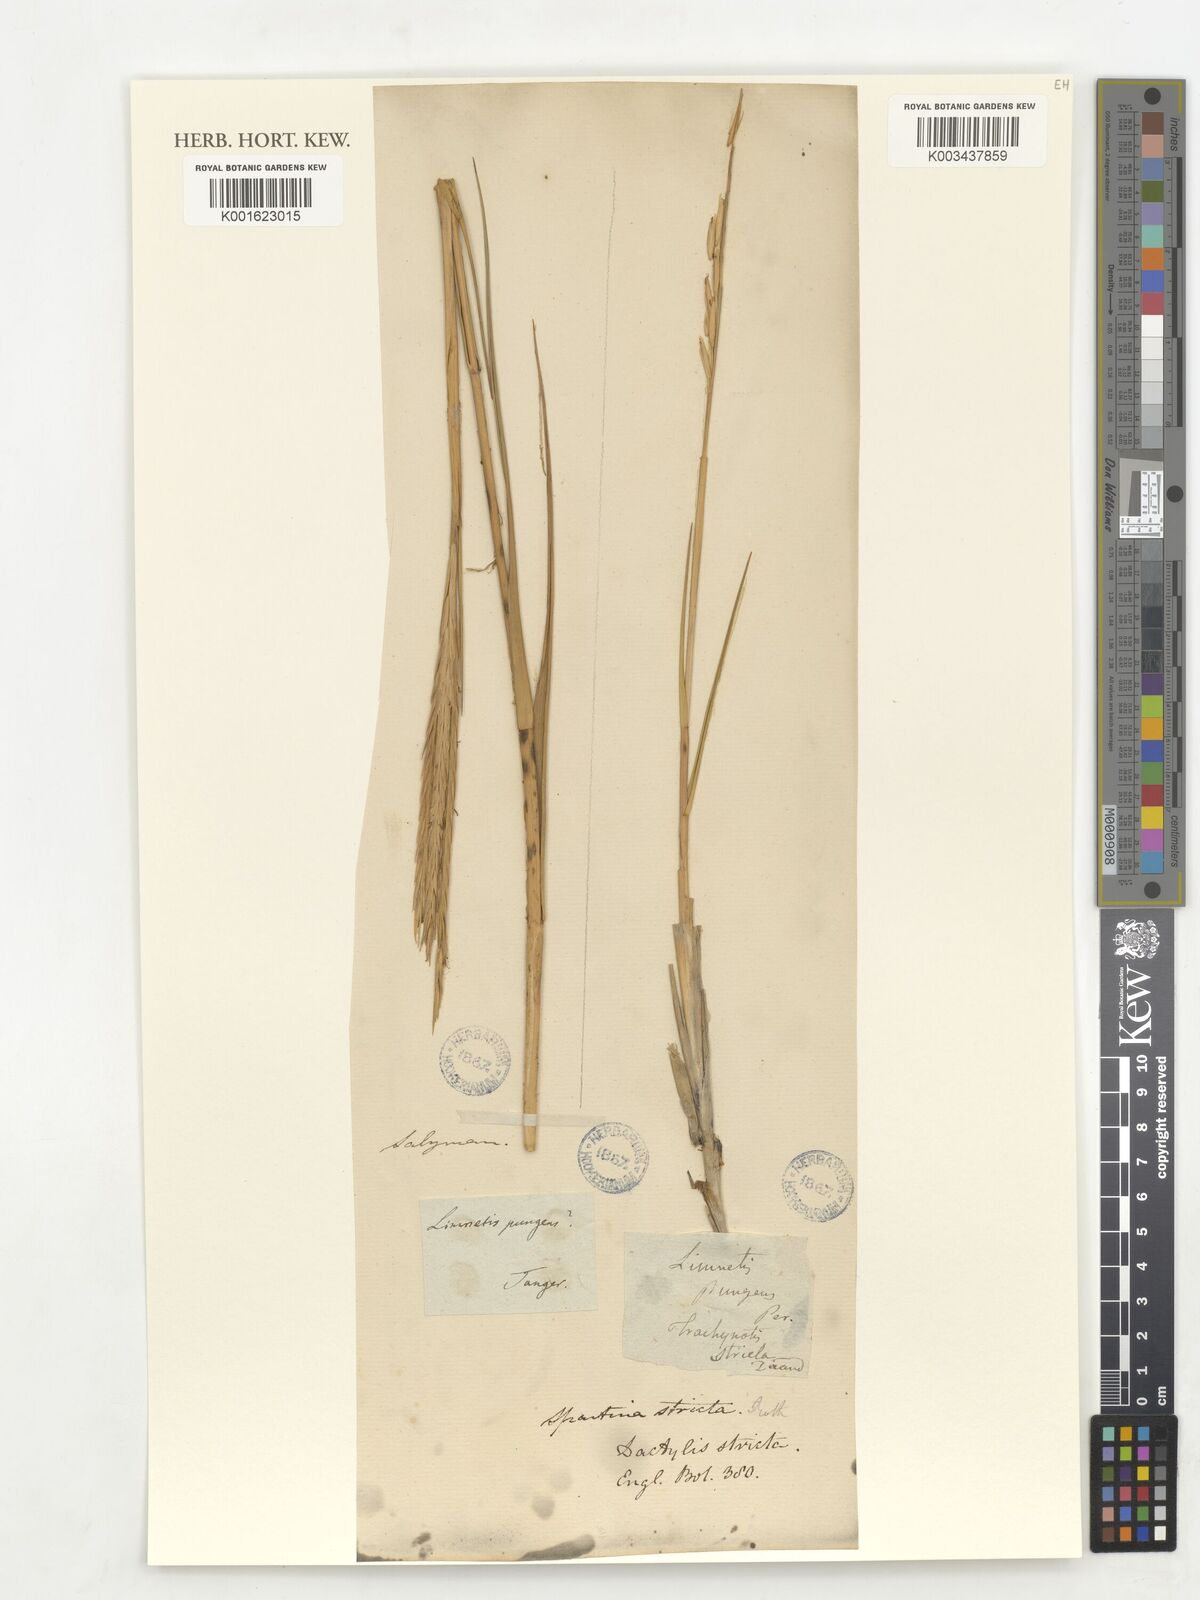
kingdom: Plantae
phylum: Tracheophyta
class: Liliopsida
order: Poales
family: Poaceae
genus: Sporobolus
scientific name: Sporobolus maritimus
